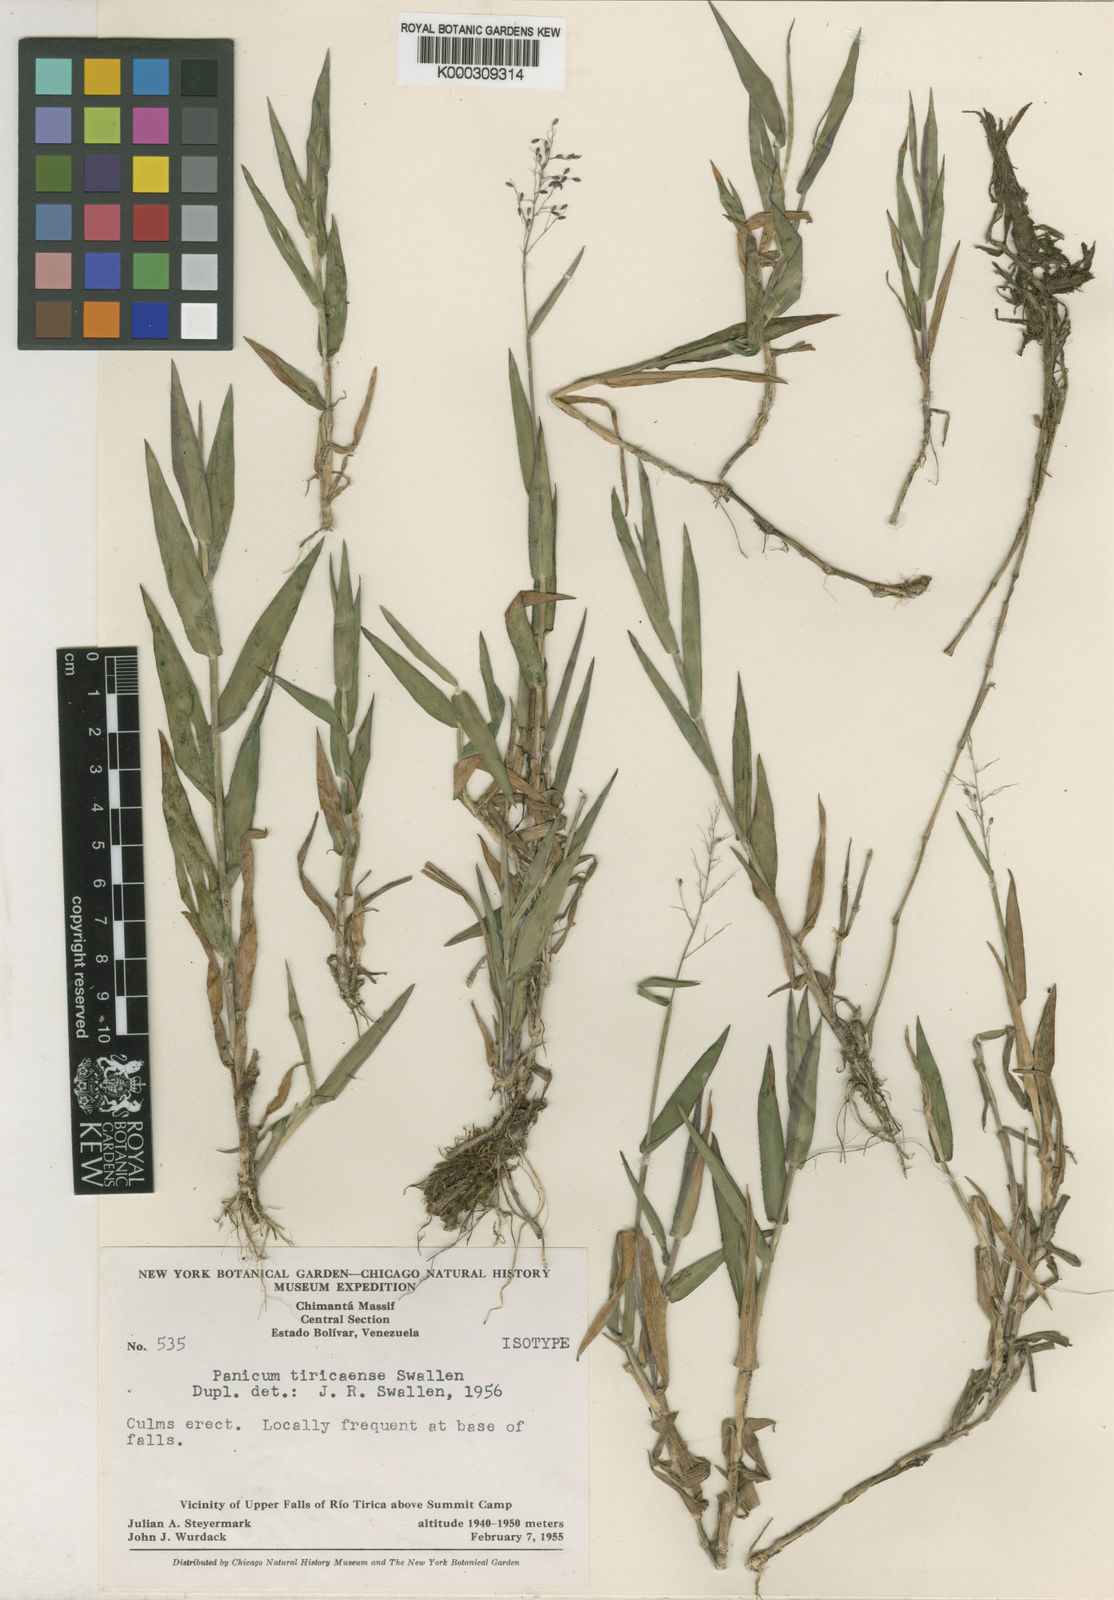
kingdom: Plantae
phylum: Tracheophyta
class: Liliopsida
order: Poales
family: Poaceae
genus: Dichanthelium
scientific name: Dichanthelium pycnoclados
